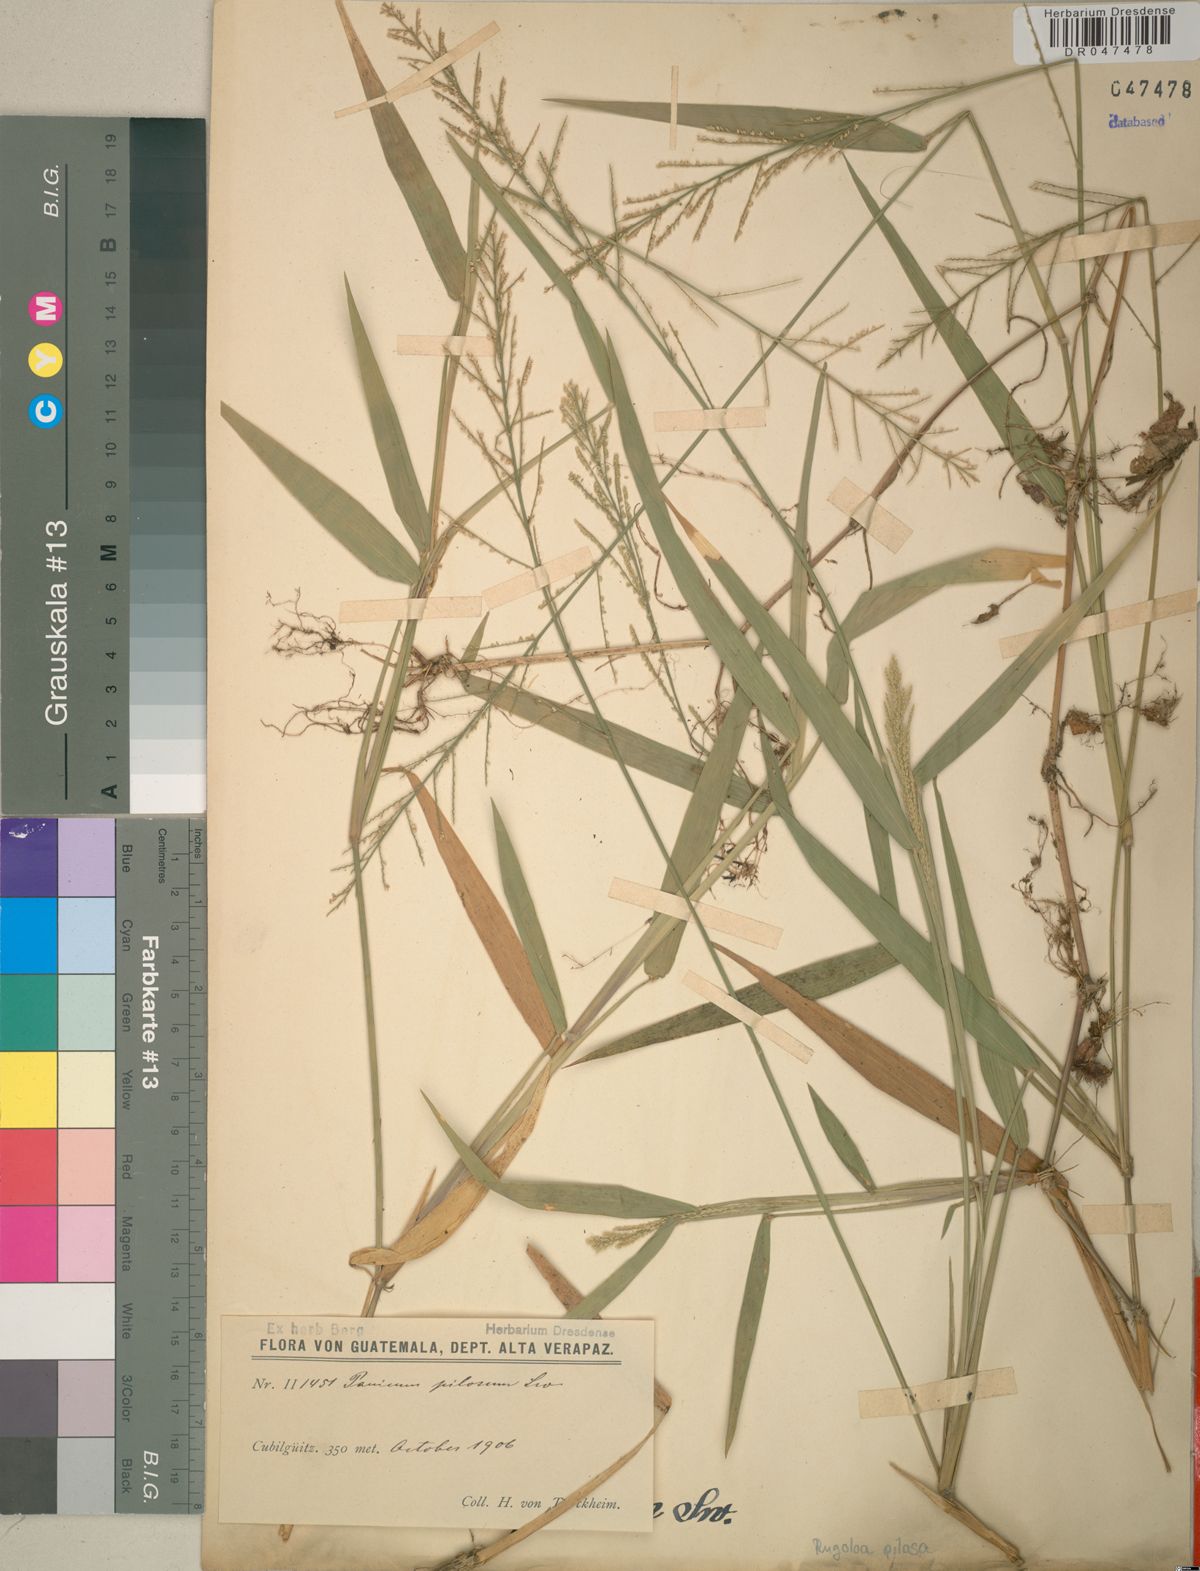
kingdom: Plantae
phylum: Tracheophyta
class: Liliopsida
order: Poales
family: Poaceae
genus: Rugoloa
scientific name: Rugoloa pilosa
